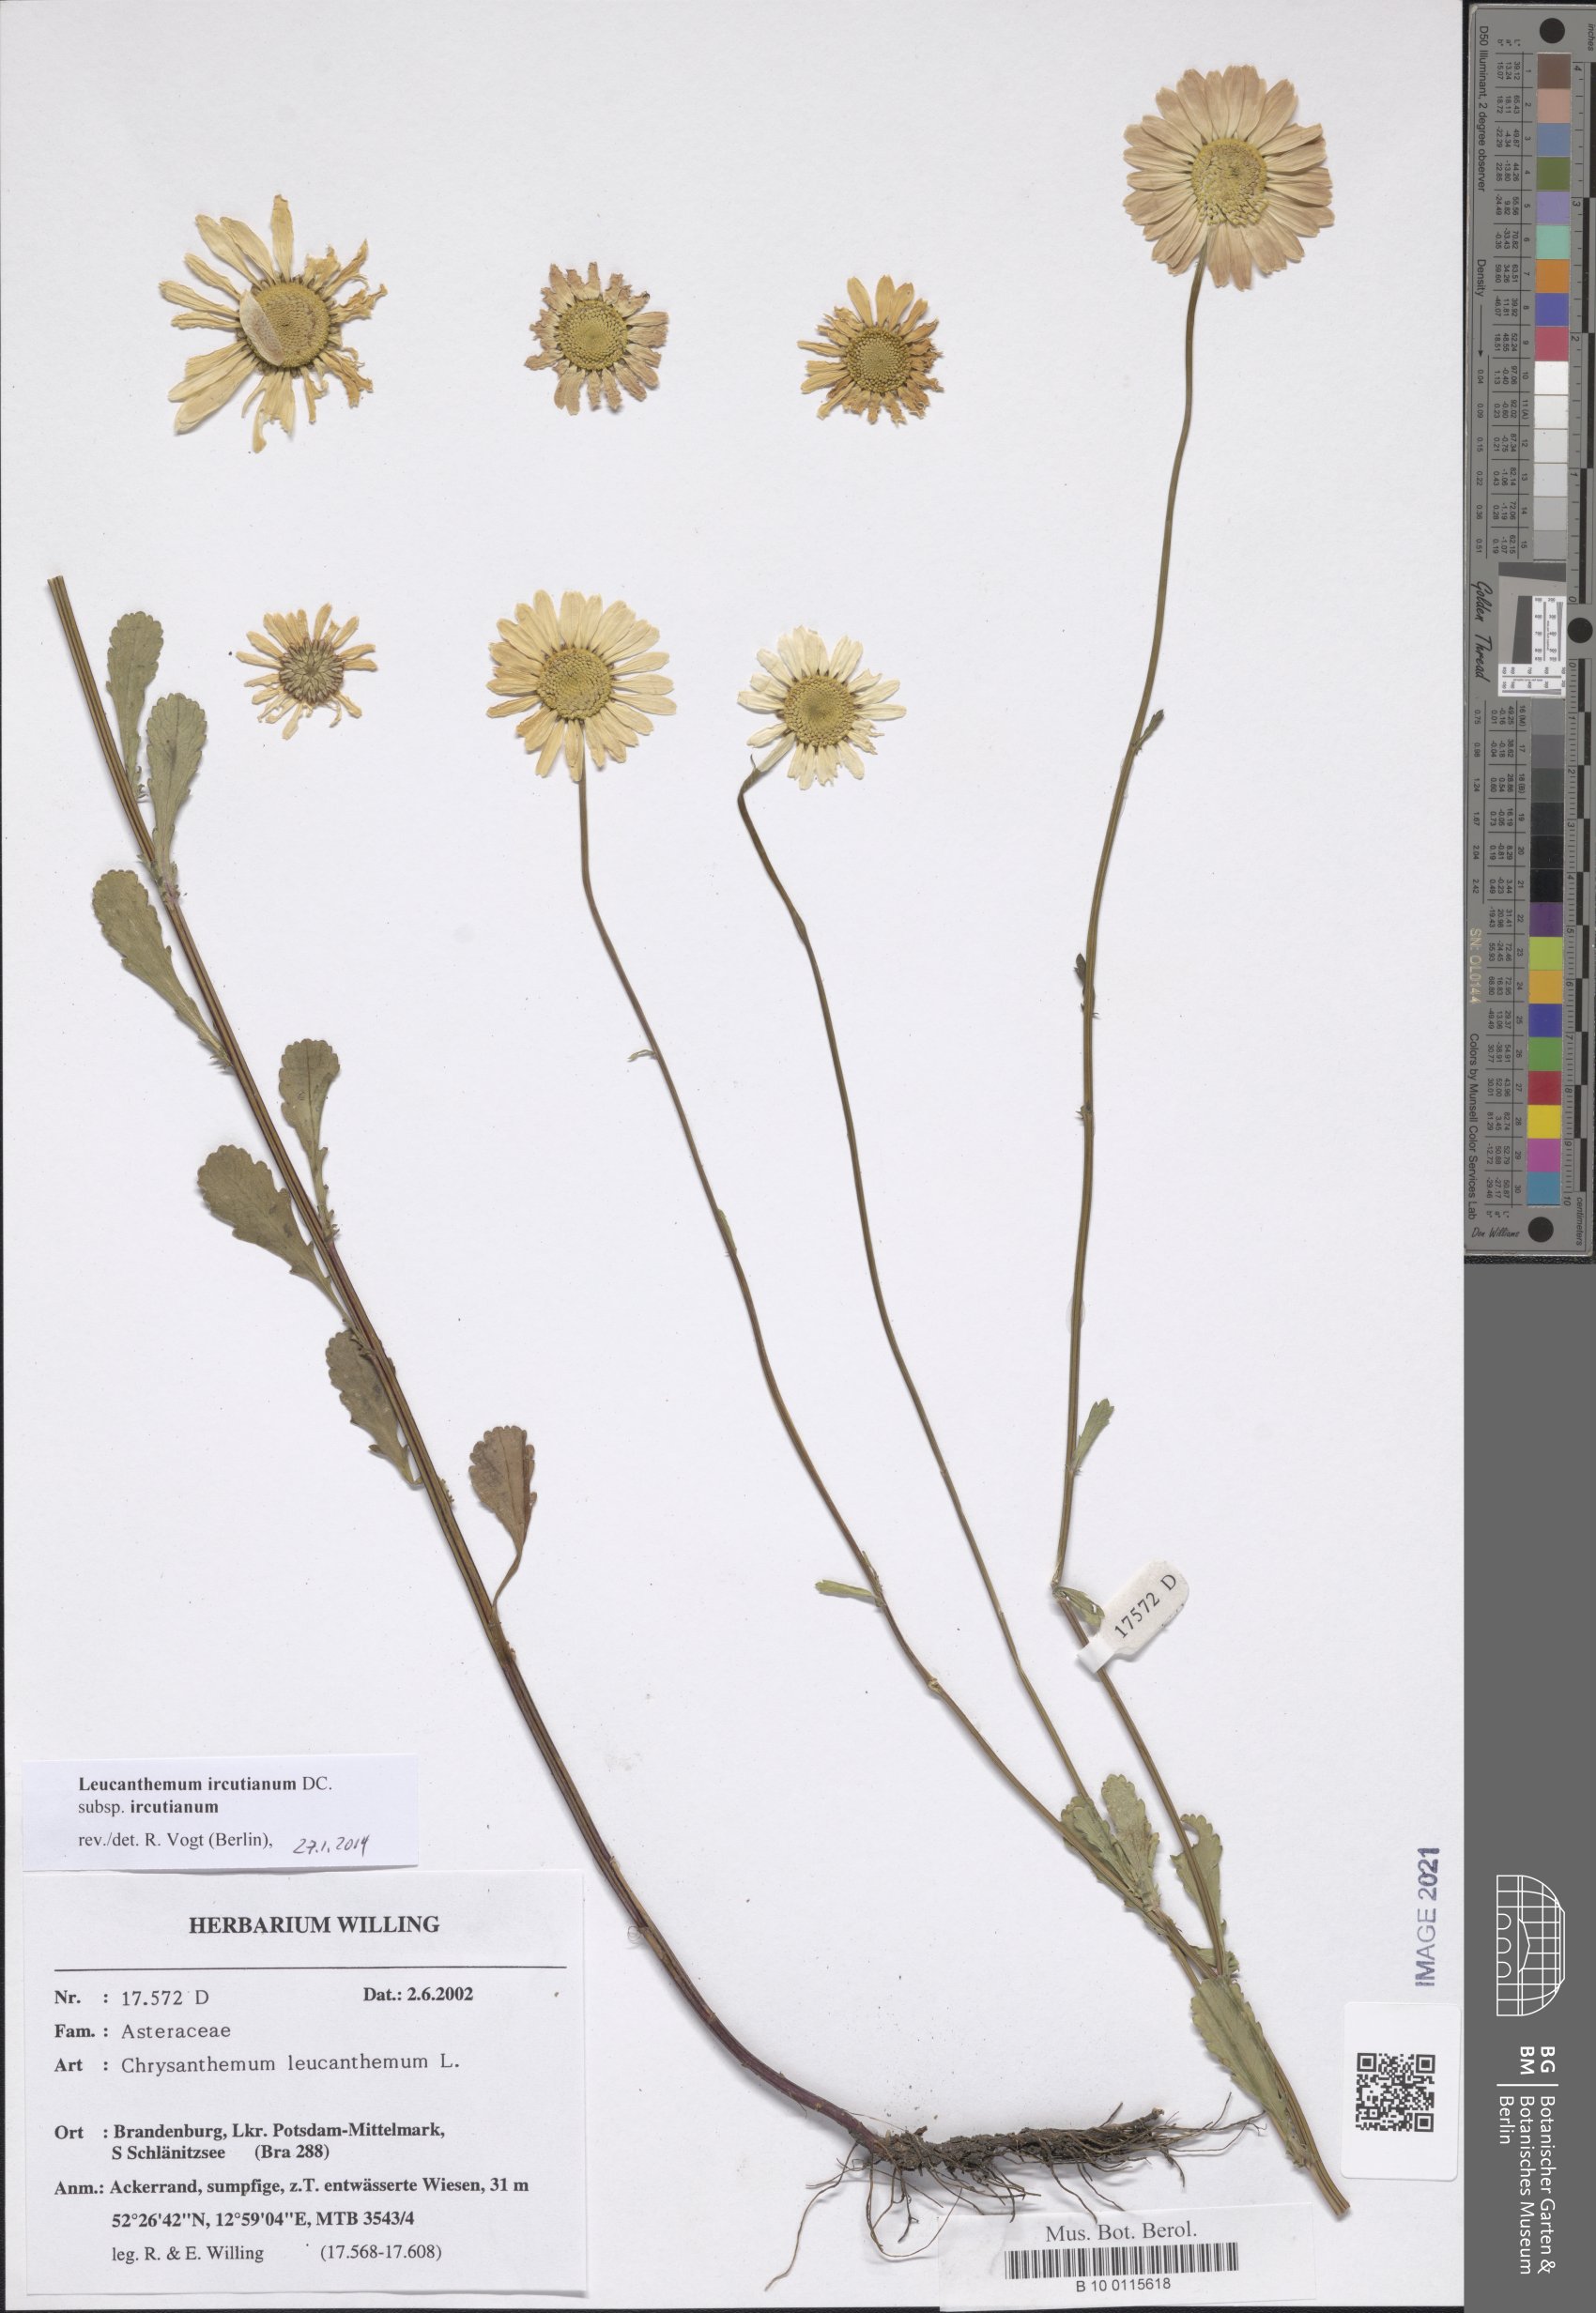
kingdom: Plantae
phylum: Tracheophyta
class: Magnoliopsida
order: Asterales
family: Asteraceae
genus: Leucanthemum
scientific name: Leucanthemum ircutianum
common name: Daisy
